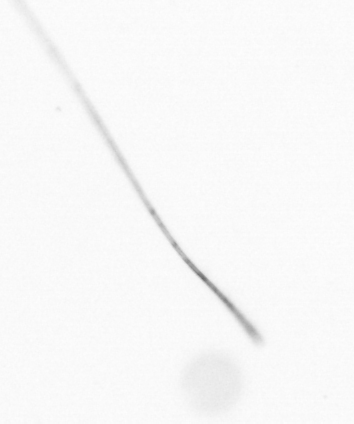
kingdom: Chromista
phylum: Ochrophyta
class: Bacillariophyceae
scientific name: Bacillariophyceae
